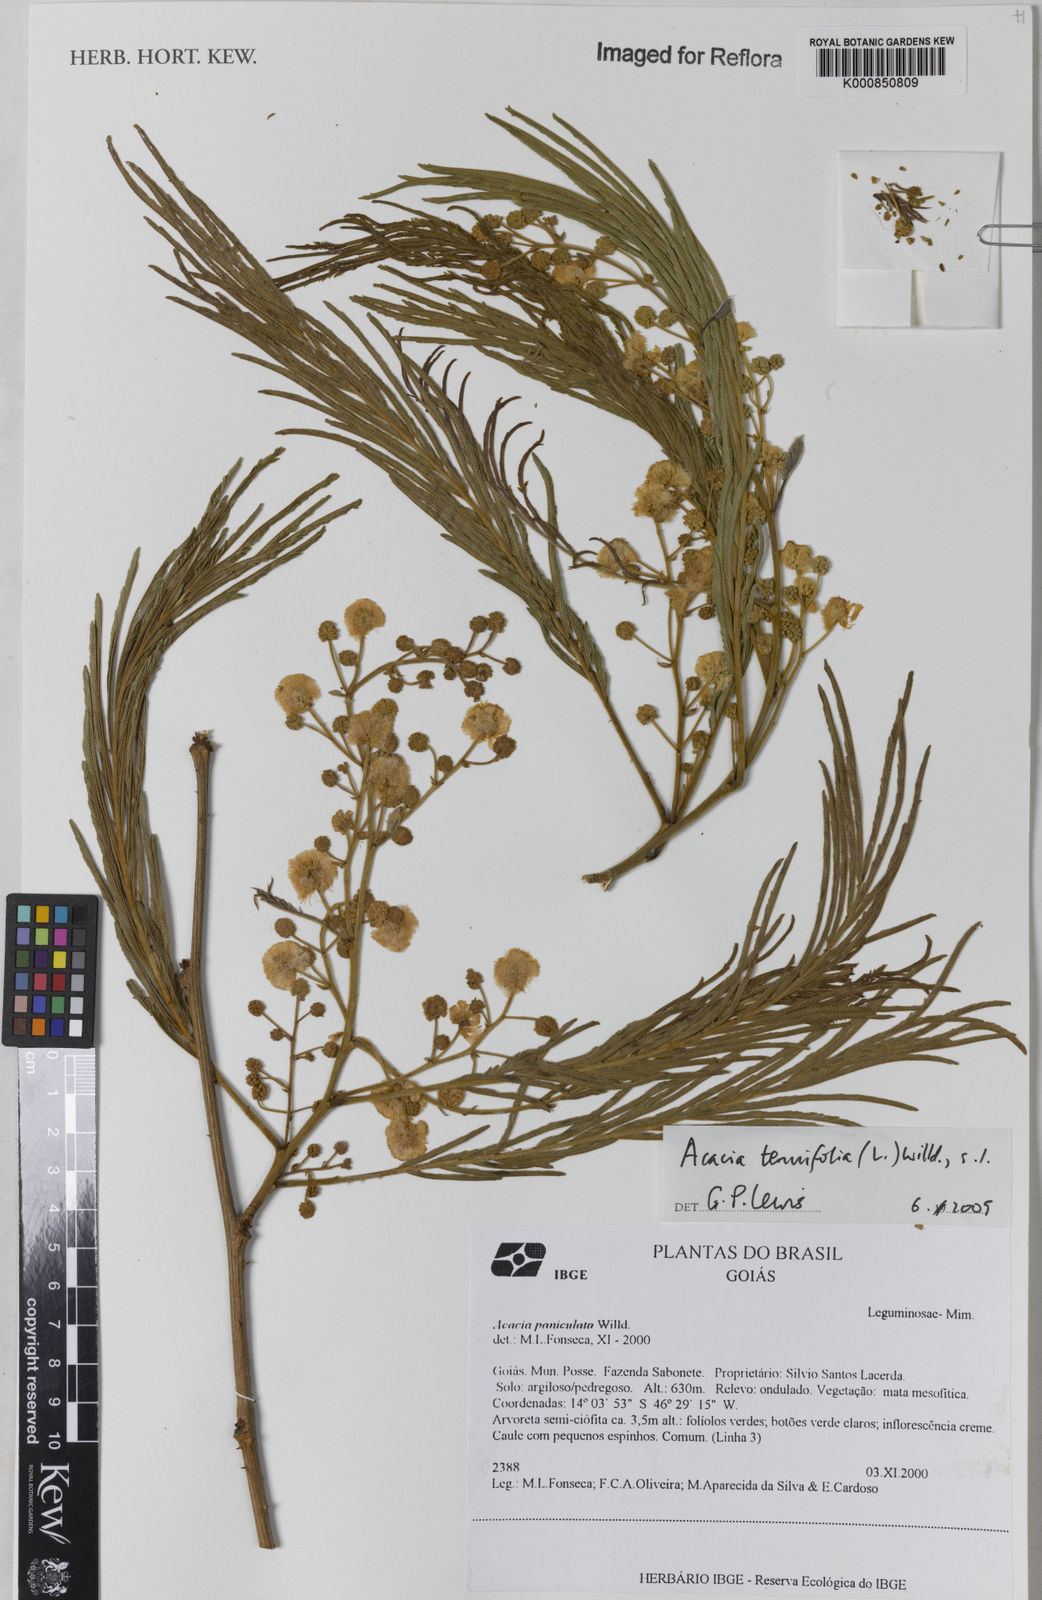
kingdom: Plantae
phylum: Tracheophyta
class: Magnoliopsida
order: Fabales
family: Fabaceae
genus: Senegalia
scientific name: Senegalia tenuifolia
